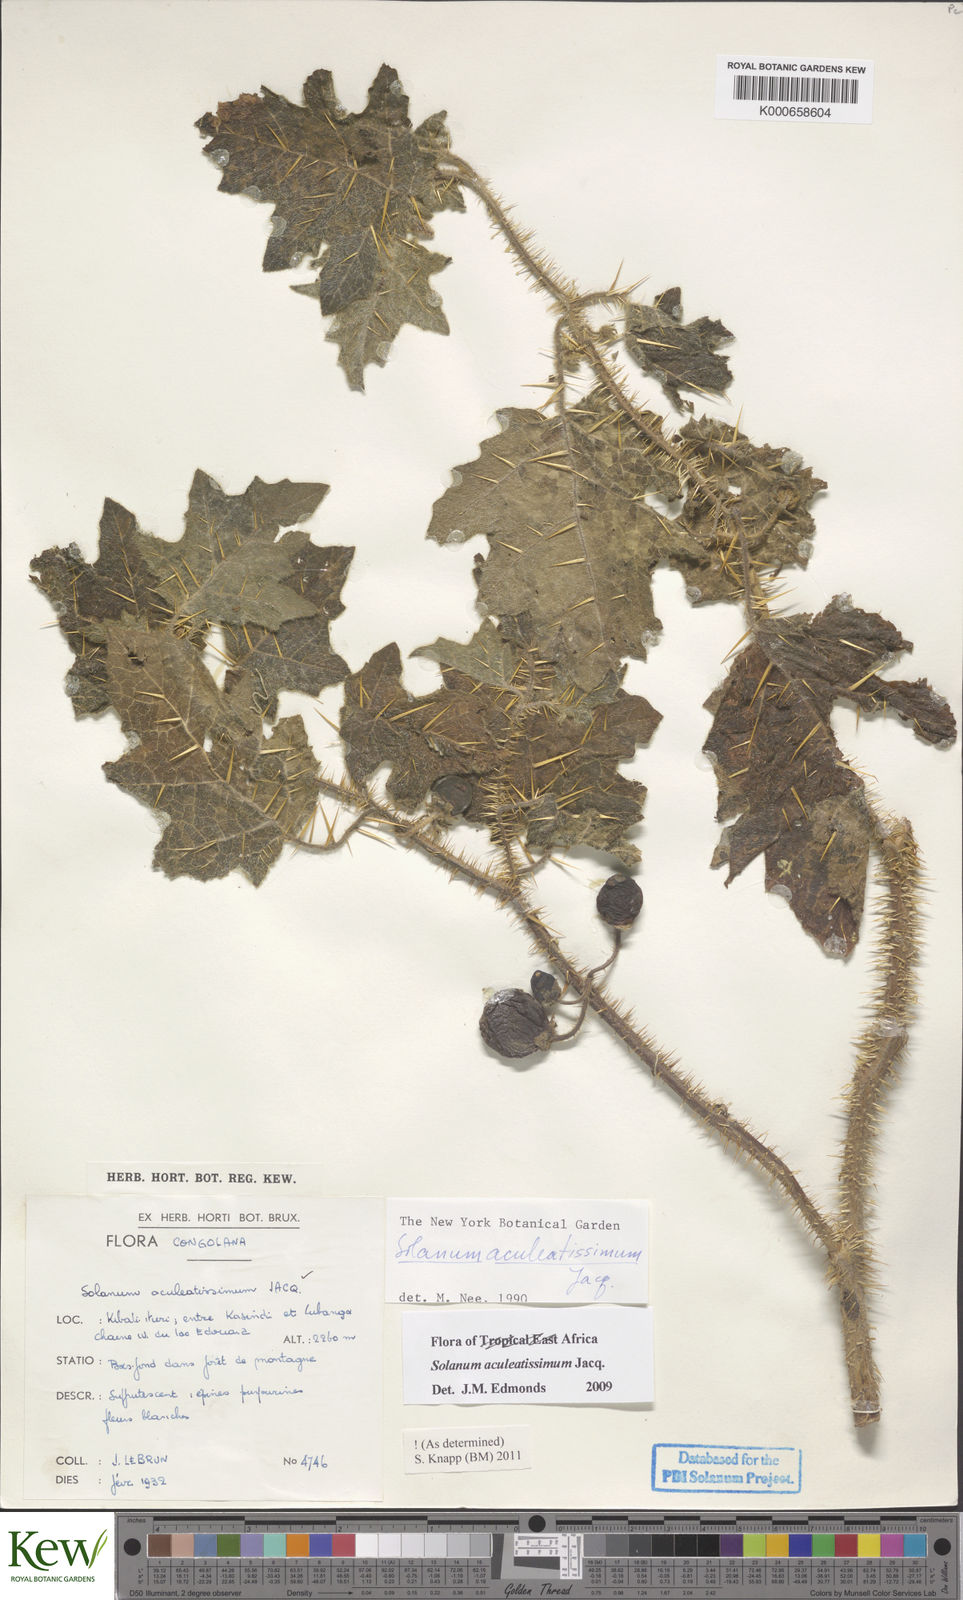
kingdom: Plantae
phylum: Tracheophyta
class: Magnoliopsida
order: Solanales
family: Solanaceae
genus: Solanum
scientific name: Solanum aculeatissimum
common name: Dutch eggplant
